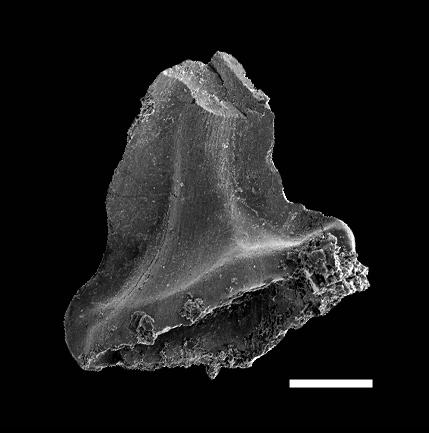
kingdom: Animalia
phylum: Chordata
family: Belodellidae
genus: Walliserodus
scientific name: Walliserodus
